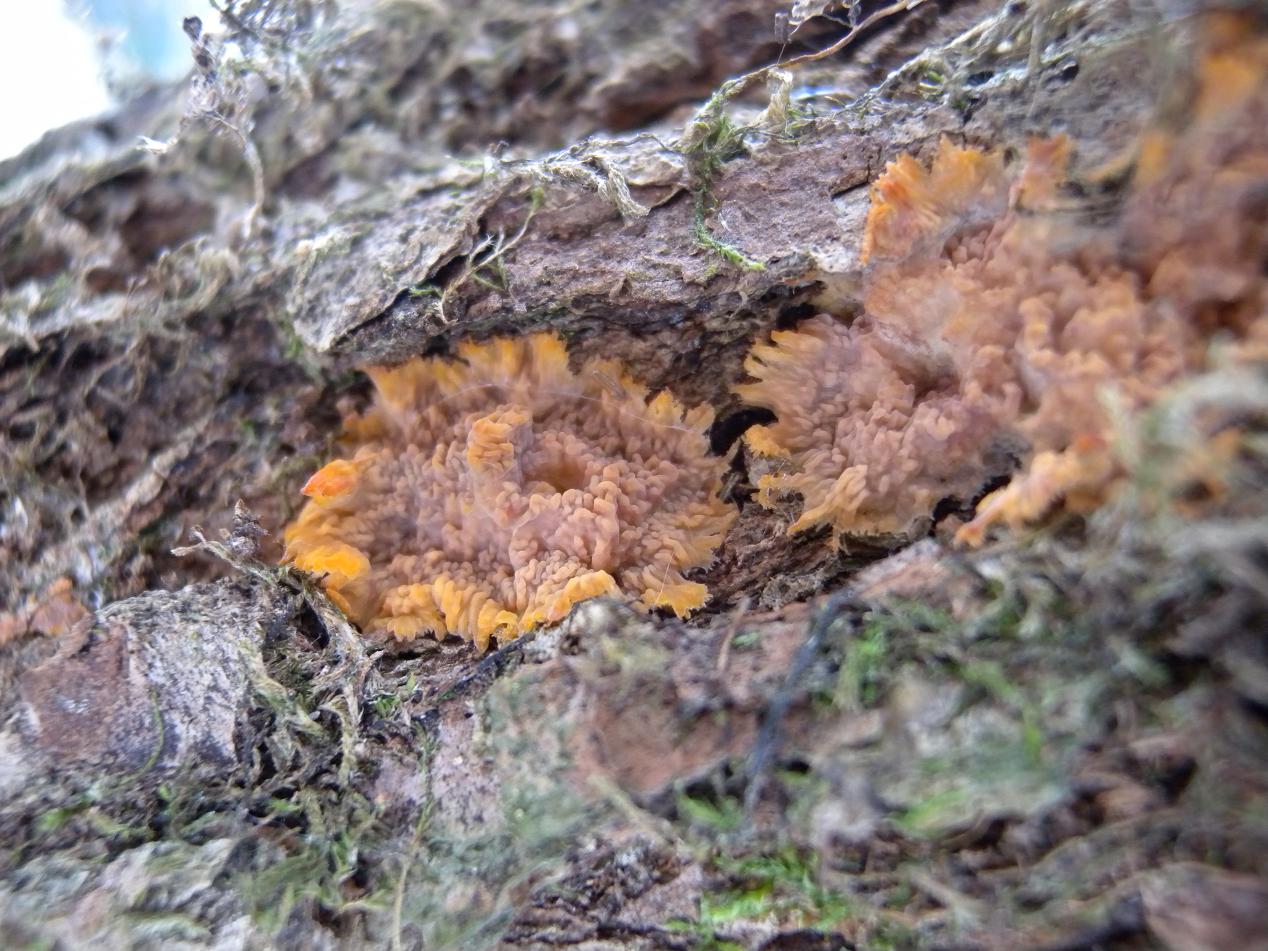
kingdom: Fungi
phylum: Basidiomycota
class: Agaricomycetes
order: Polyporales
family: Meruliaceae
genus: Phlebia
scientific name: Phlebia radiata
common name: stråle-åresvamp
